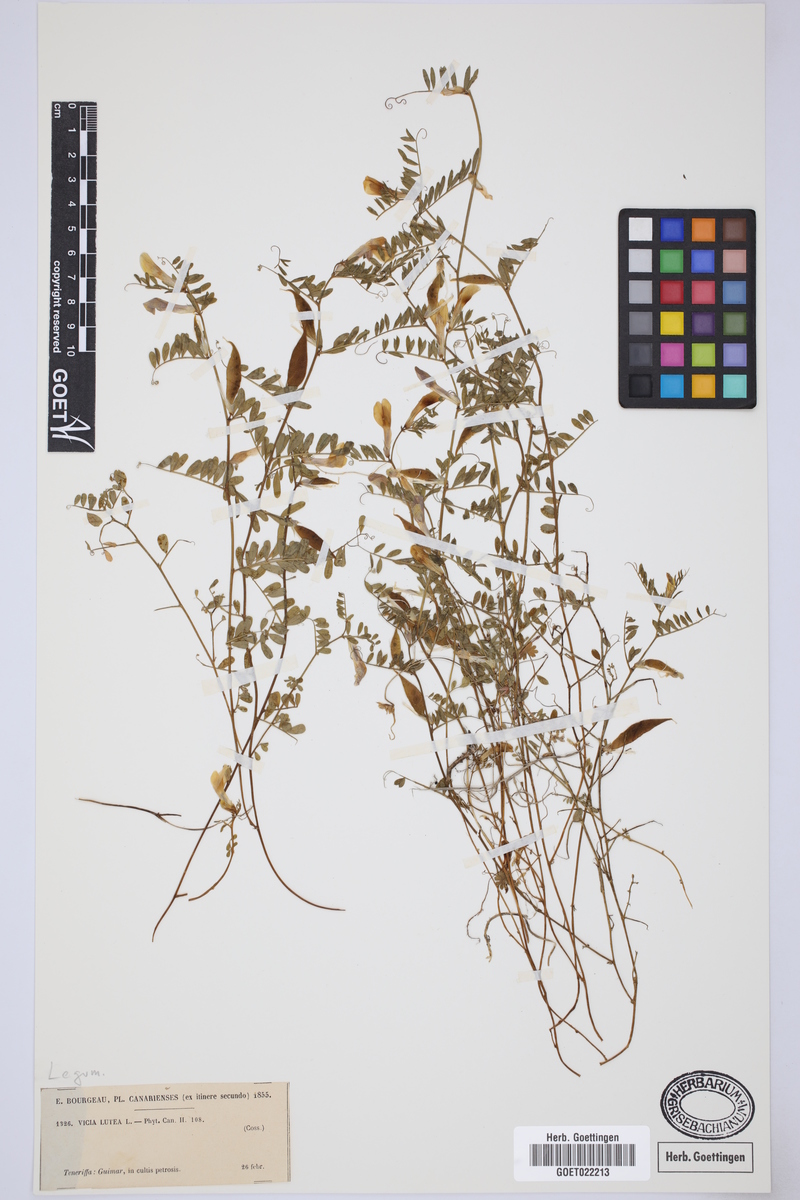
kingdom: Plantae
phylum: Tracheophyta
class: Magnoliopsida
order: Fabales
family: Fabaceae
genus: Vicia
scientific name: Vicia lutea
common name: Smooth yellow vetch
